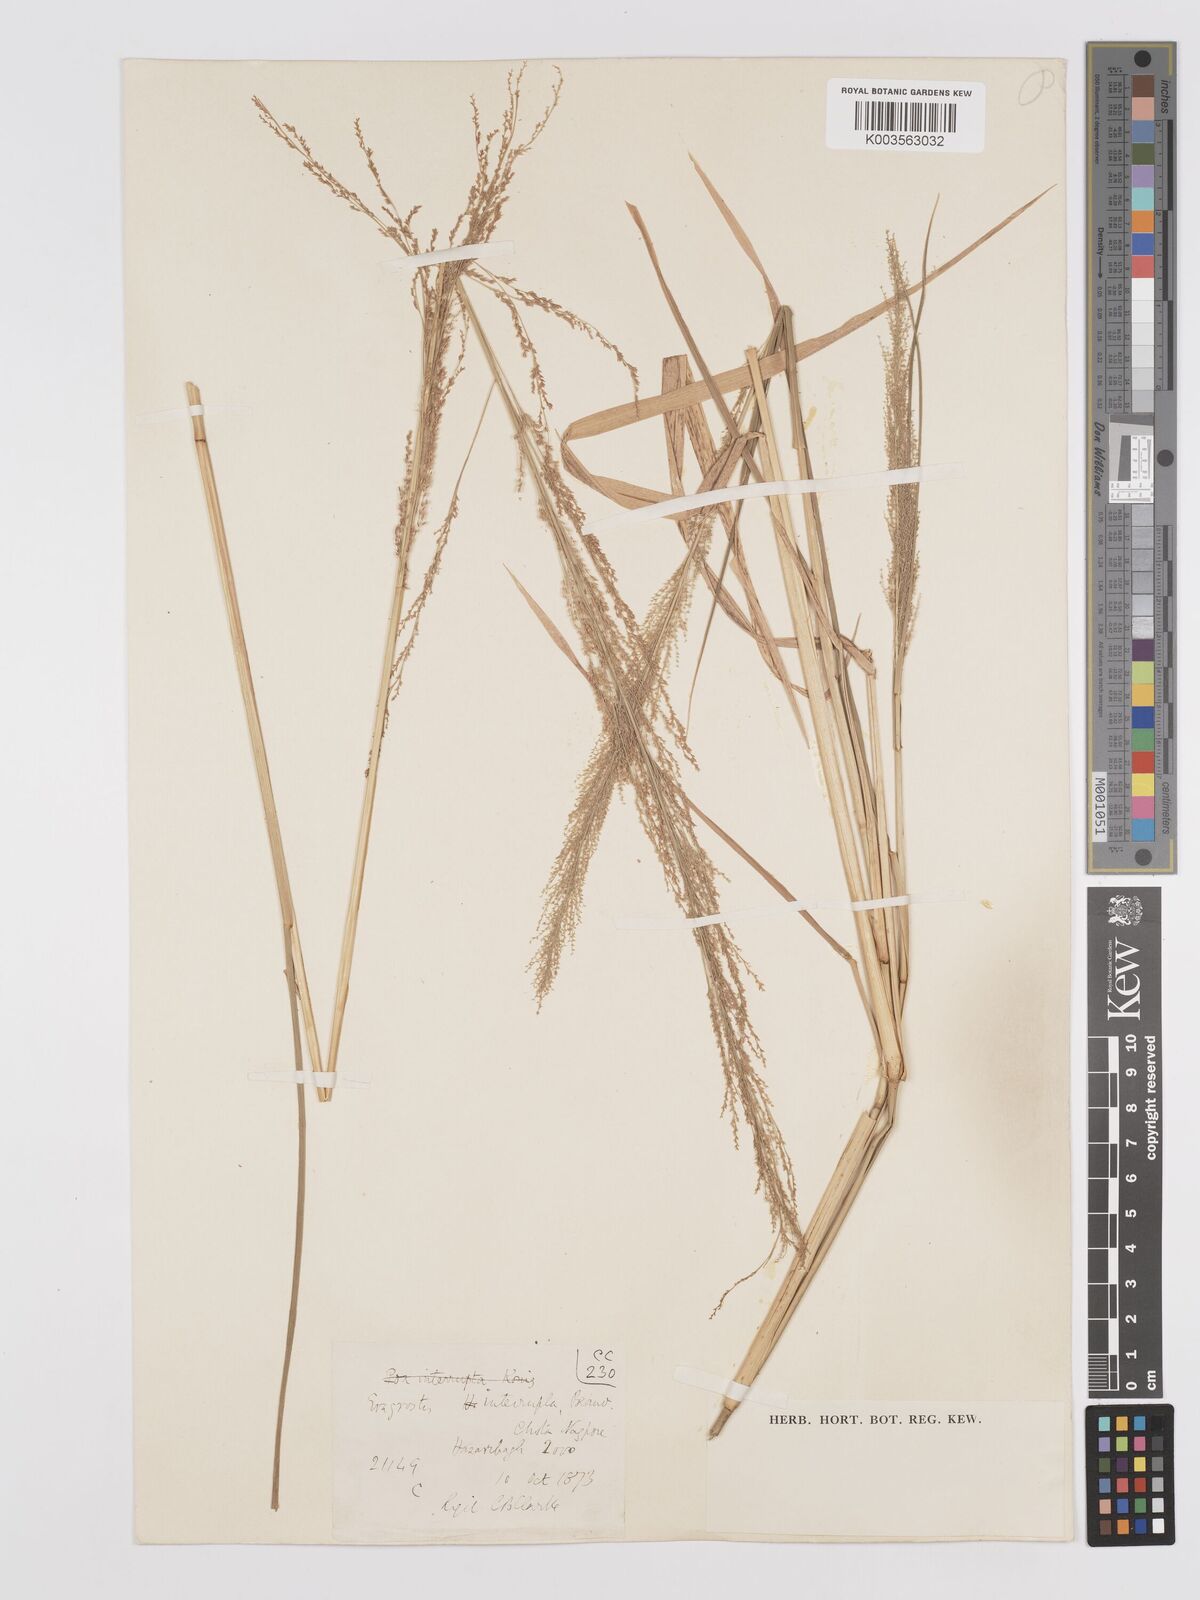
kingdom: Plantae
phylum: Tracheophyta
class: Liliopsida
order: Poales
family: Poaceae
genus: Eragrostis
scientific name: Eragrostis japonica
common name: Pond lovegrass
